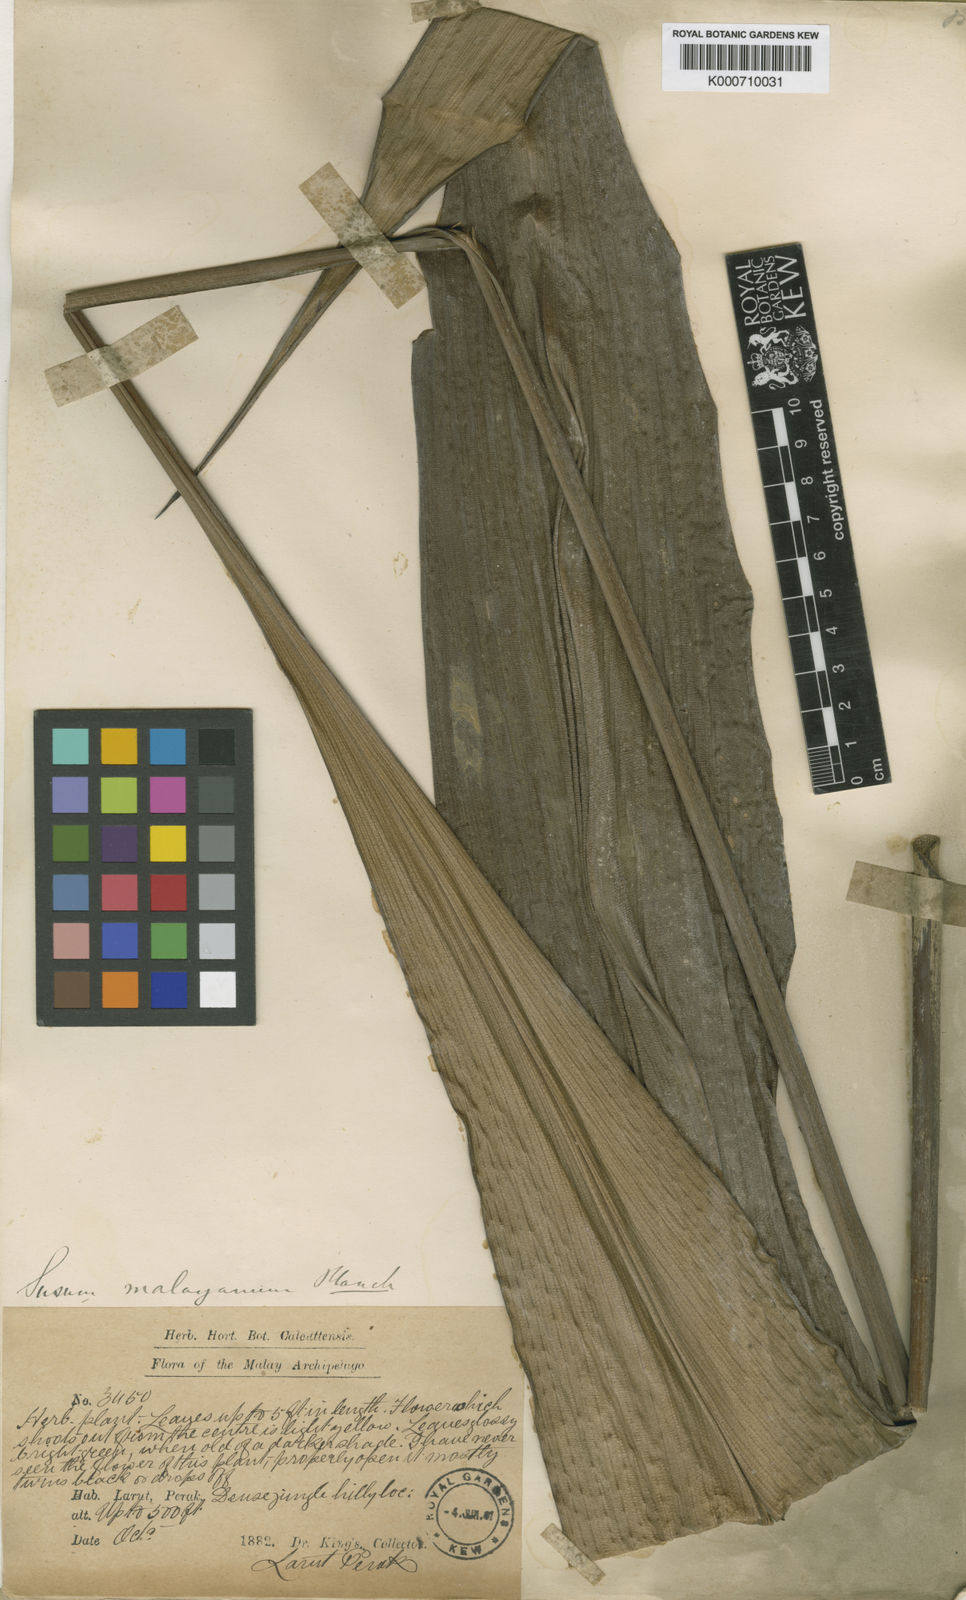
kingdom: Plantae
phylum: Tracheophyta
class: Liliopsida
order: Commelinales
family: Hanguanaceae
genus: Hanguana
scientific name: Hanguana malayana
